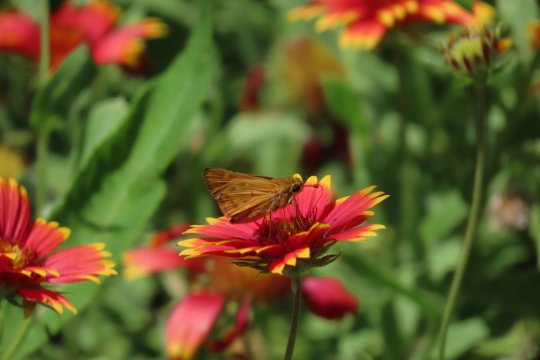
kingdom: Animalia
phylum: Arthropoda
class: Insecta
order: Lepidoptera
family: Hesperiidae
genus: Hylephila
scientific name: Hylephila phyleus
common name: Fiery Skipper
